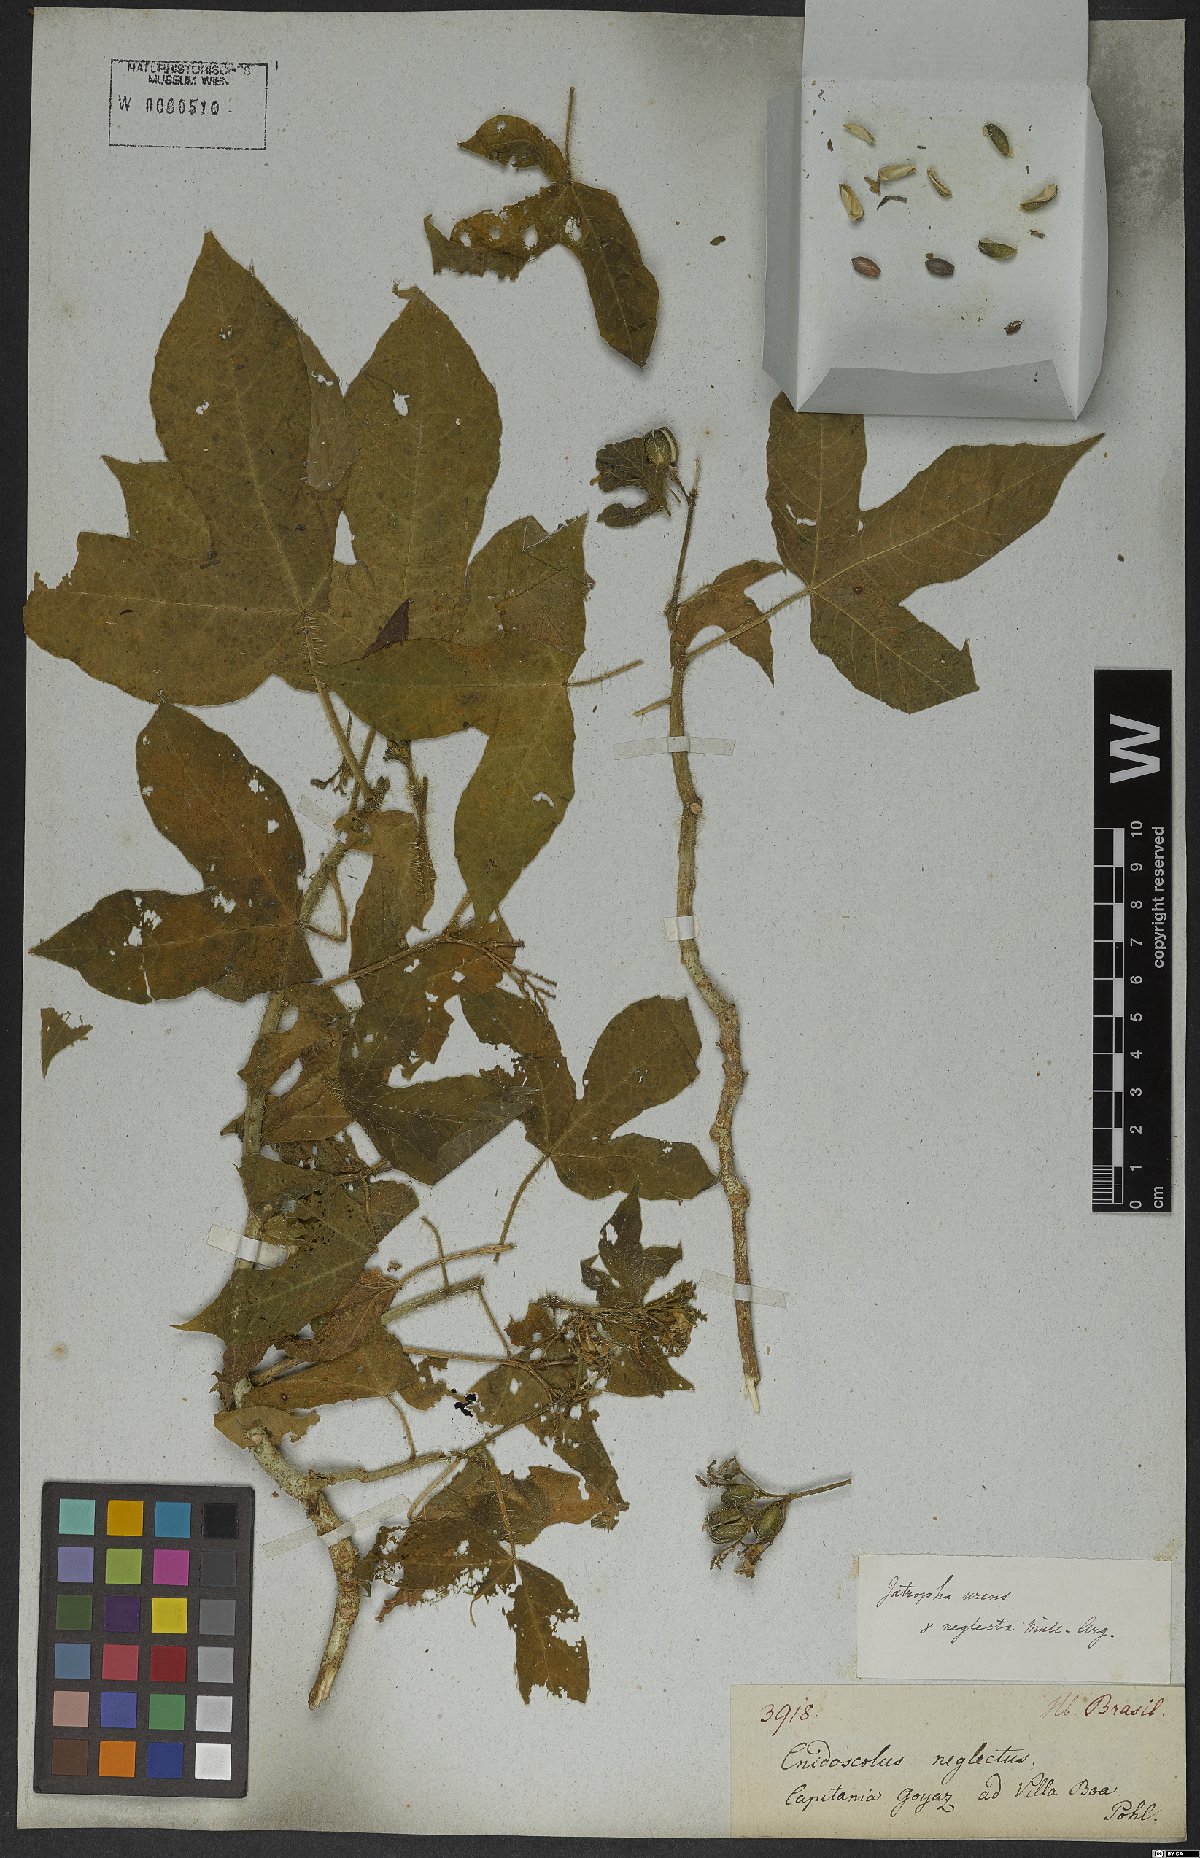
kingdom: Plantae
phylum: Tracheophyta
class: Magnoliopsida
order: Malpighiales
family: Euphorbiaceae
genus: Cnidoscolus
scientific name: Cnidoscolus neglectus
